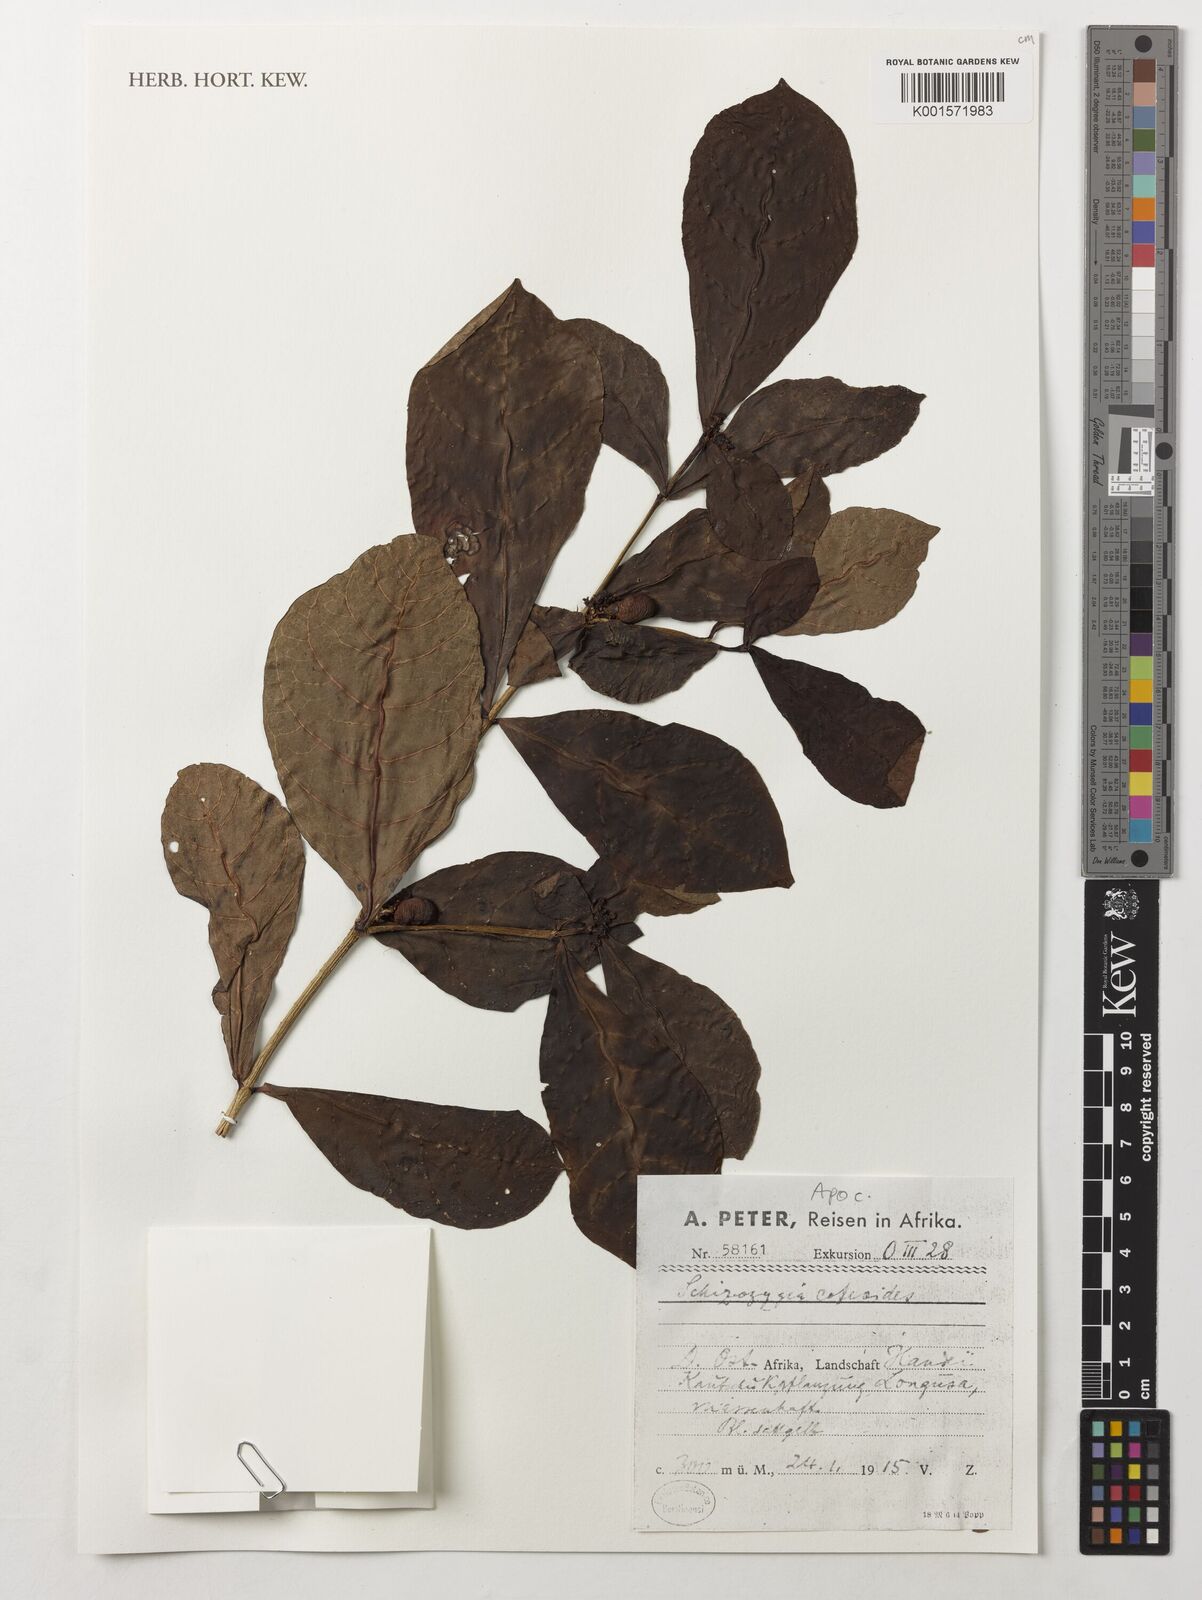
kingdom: Plantae
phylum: Tracheophyta
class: Magnoliopsida
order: Gentianales
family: Apocynaceae
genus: Schizozygia
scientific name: Schizozygia coffeoides
